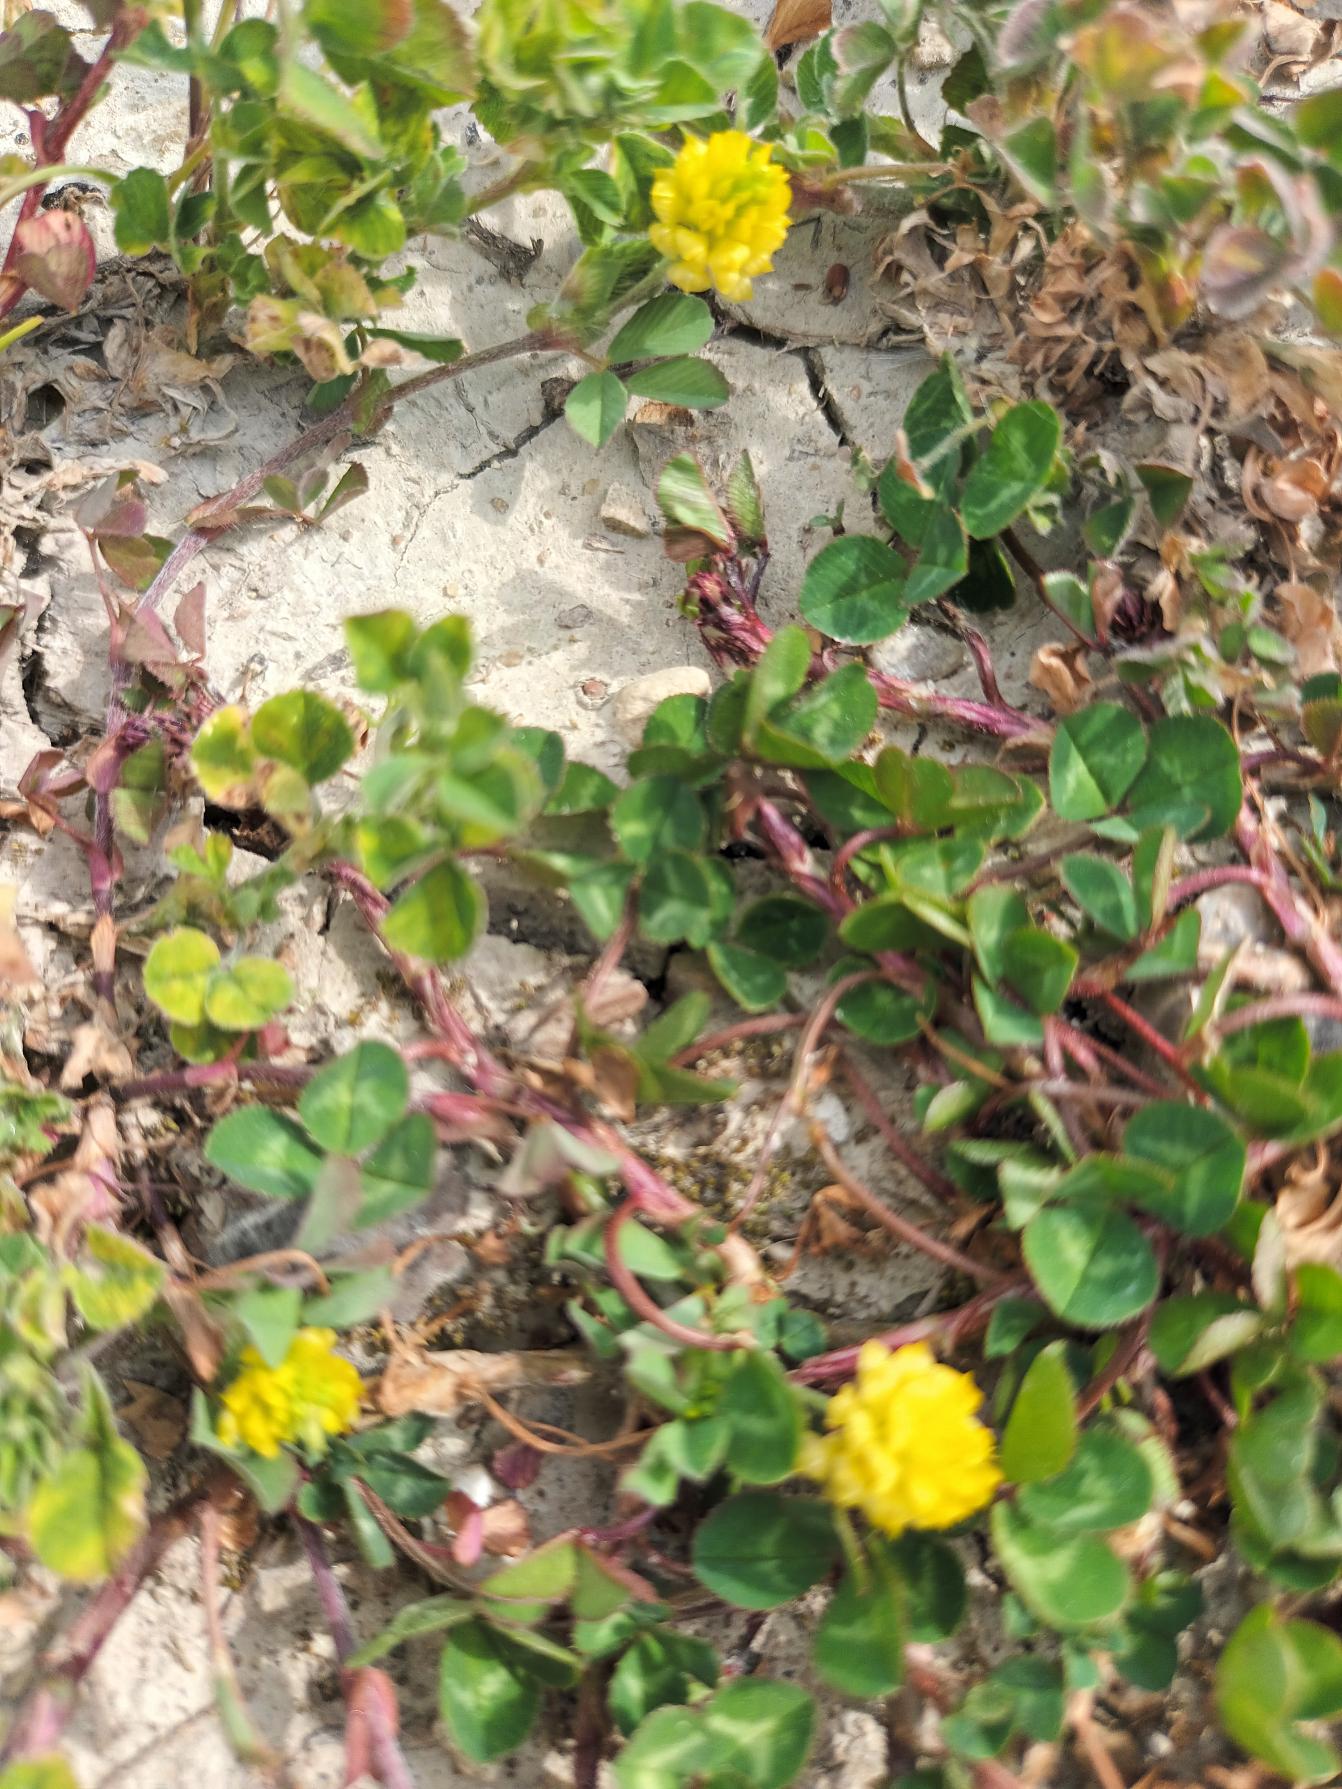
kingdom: Plantae
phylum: Tracheophyta
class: Magnoliopsida
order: Fabales
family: Fabaceae
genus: Trifolium
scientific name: Trifolium campestre
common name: Gul kløver
